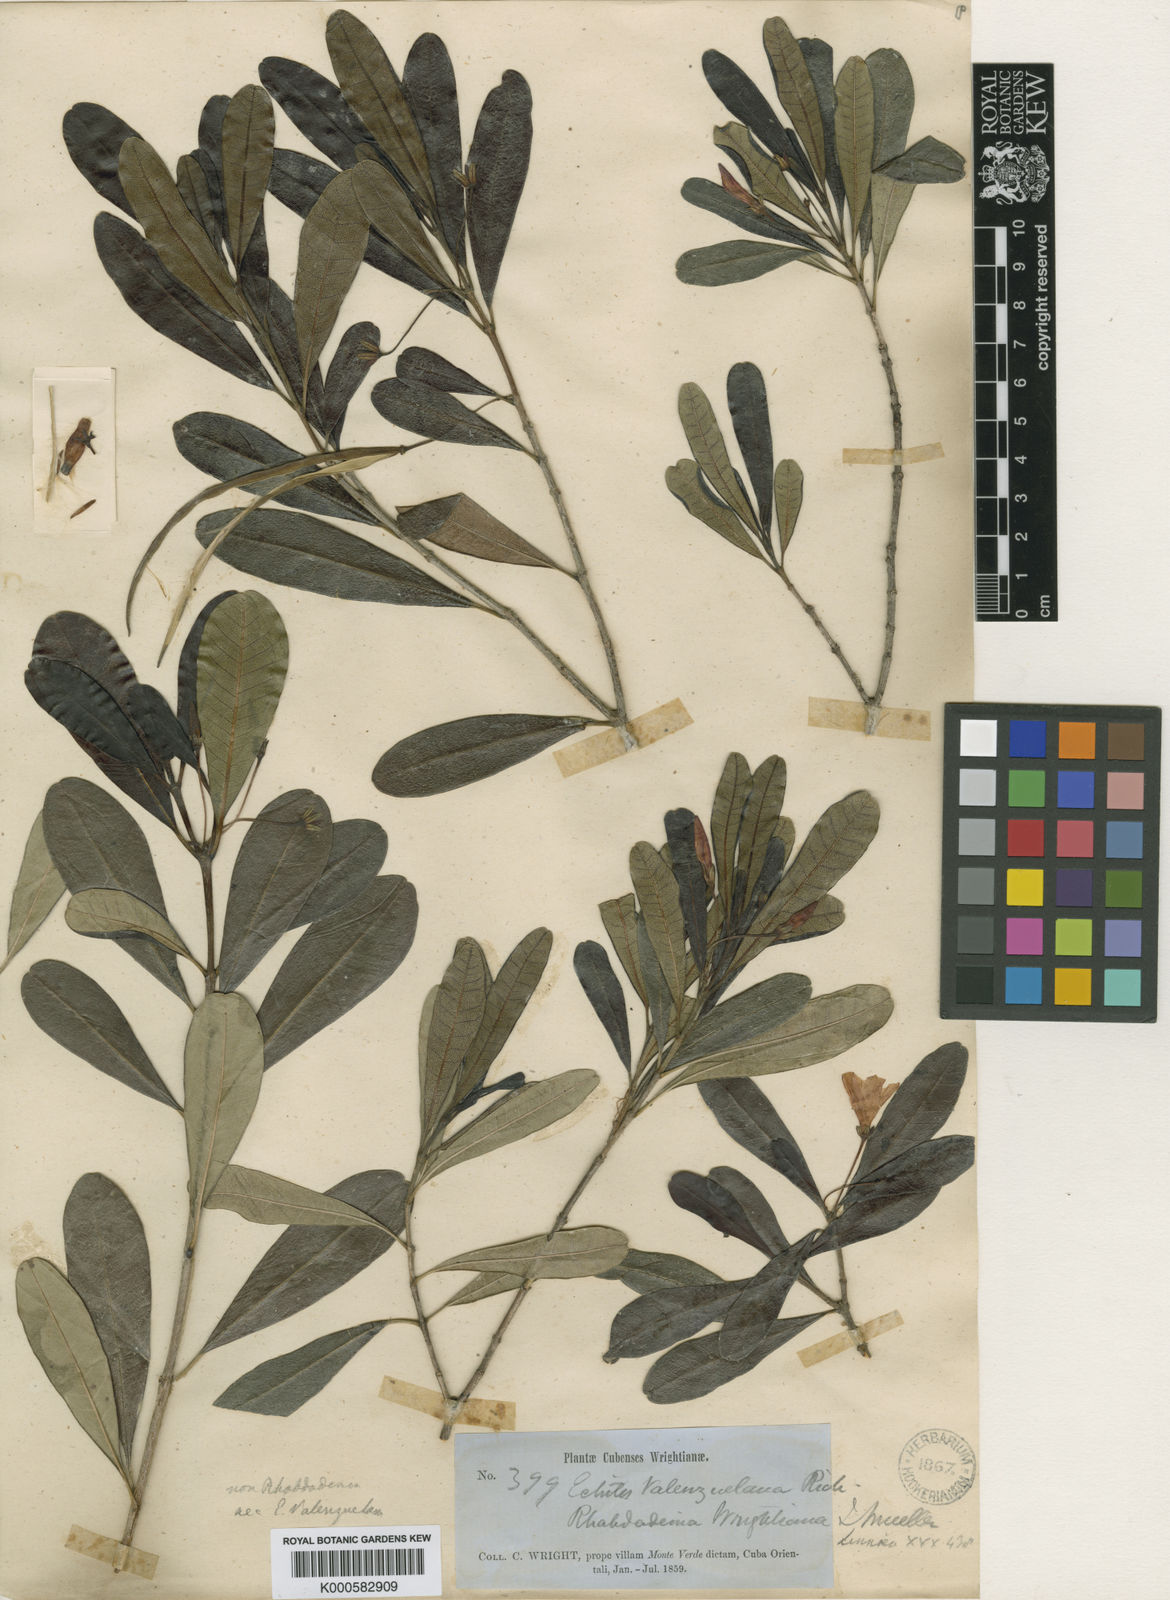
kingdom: Plantae
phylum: Tracheophyta
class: Magnoliopsida
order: Gentianales
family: Apocynaceae
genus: Neobracea
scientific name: Neobracea valenzuelana
